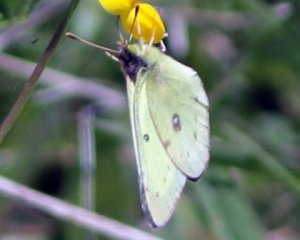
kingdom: Animalia
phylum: Arthropoda
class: Insecta
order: Lepidoptera
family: Pieridae
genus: Colias
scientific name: Colias philodice
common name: Clouded Sulphur
